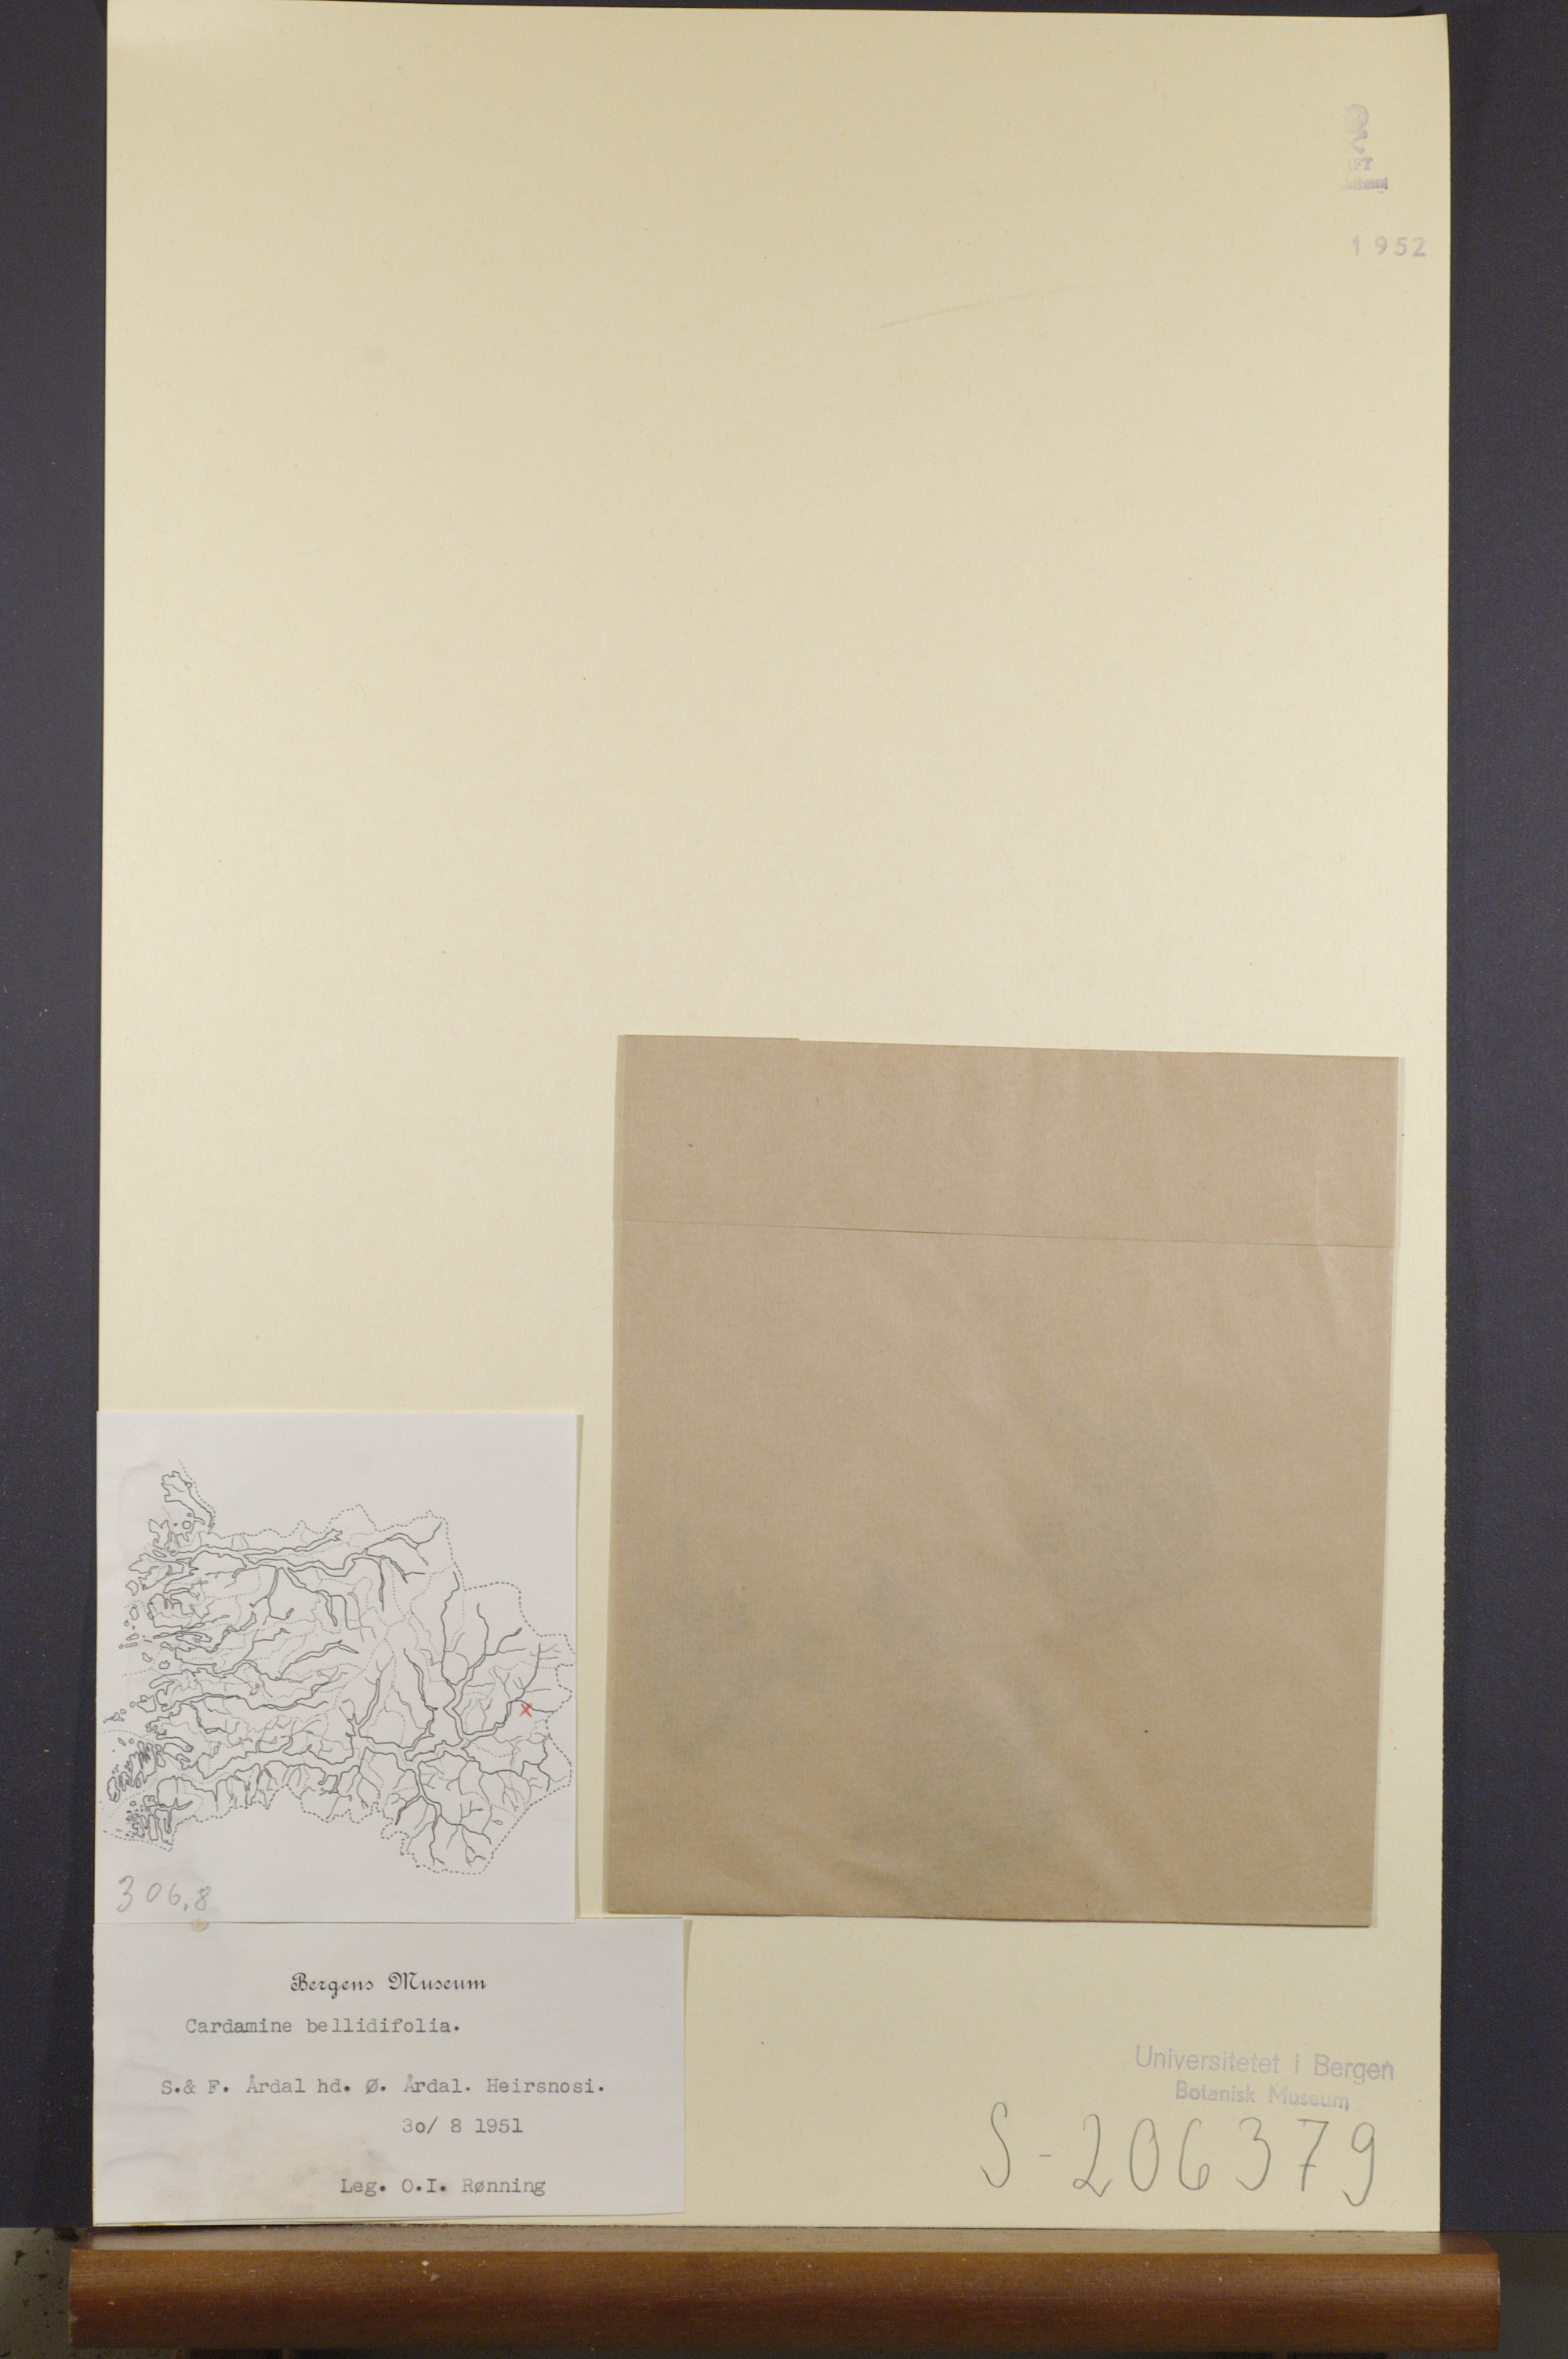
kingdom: Plantae
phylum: Tracheophyta
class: Magnoliopsida
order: Brassicales
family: Brassicaceae
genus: Cardamine
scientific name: Cardamine bellidifolia
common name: Alpine bittercress
